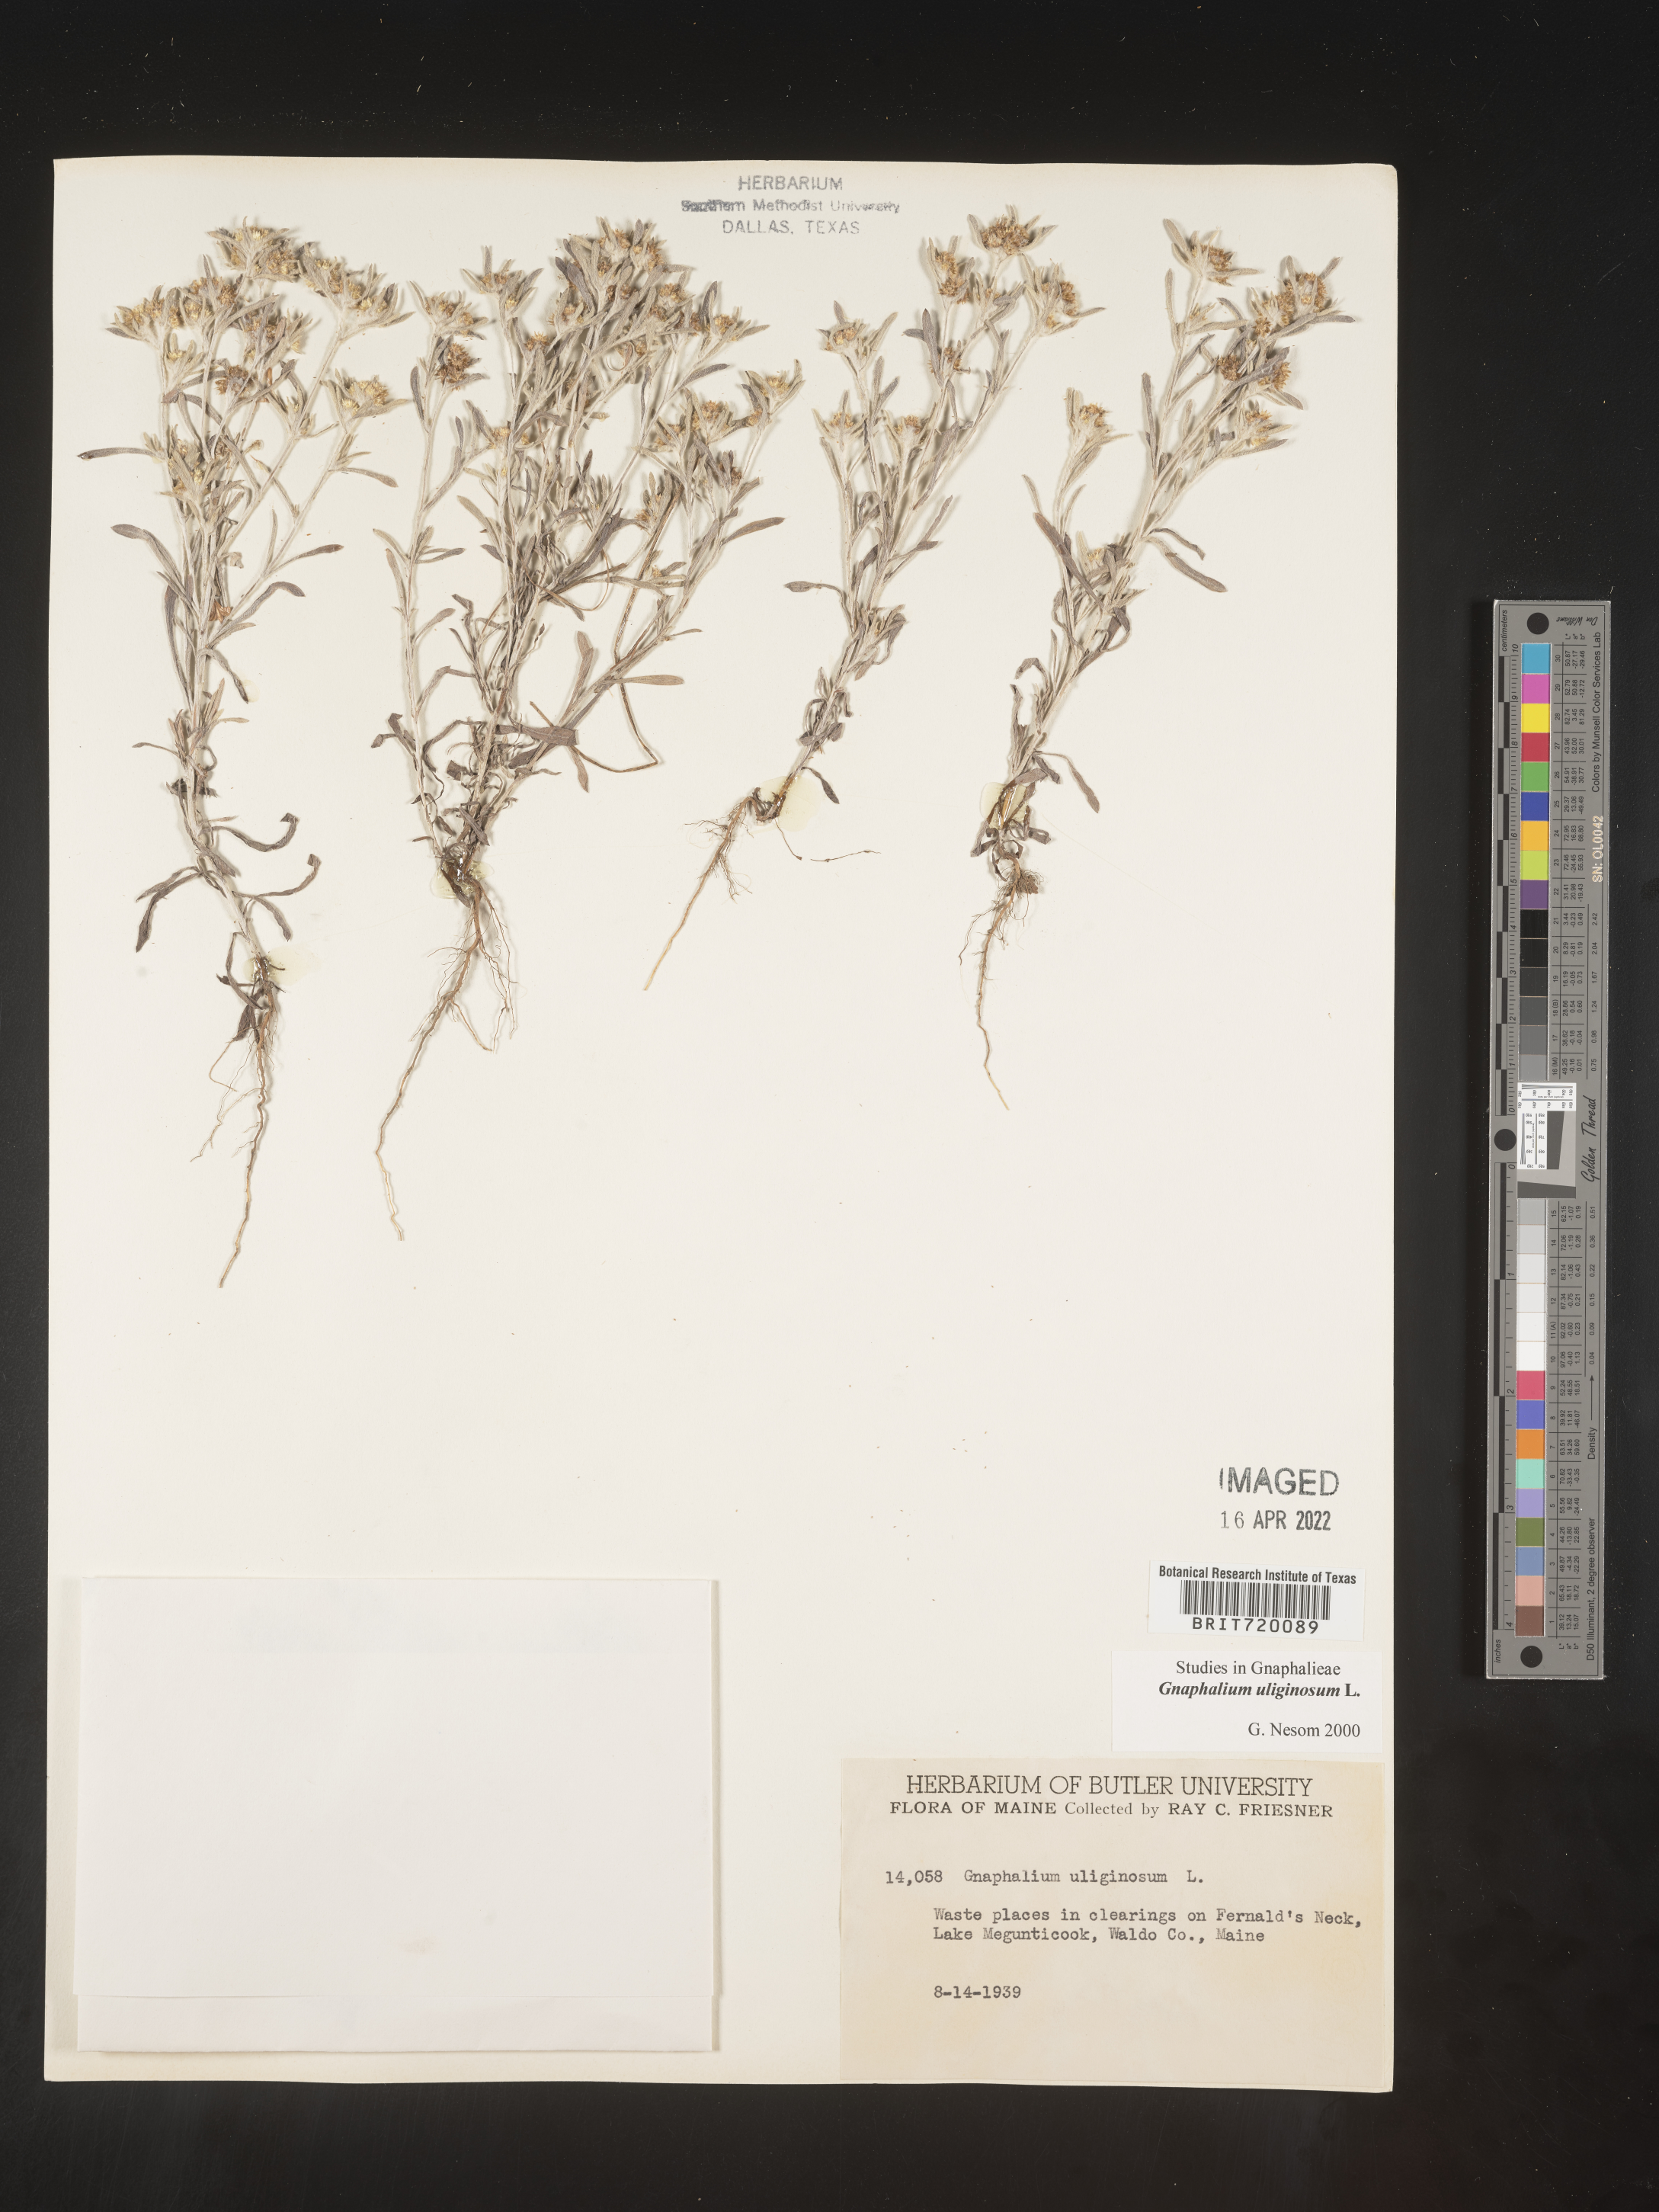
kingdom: Plantae
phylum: Tracheophyta
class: Magnoliopsida
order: Asterales
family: Asteraceae
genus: Gnaphalium
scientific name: Gnaphalium uliginosum
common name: Marsh cudweed
